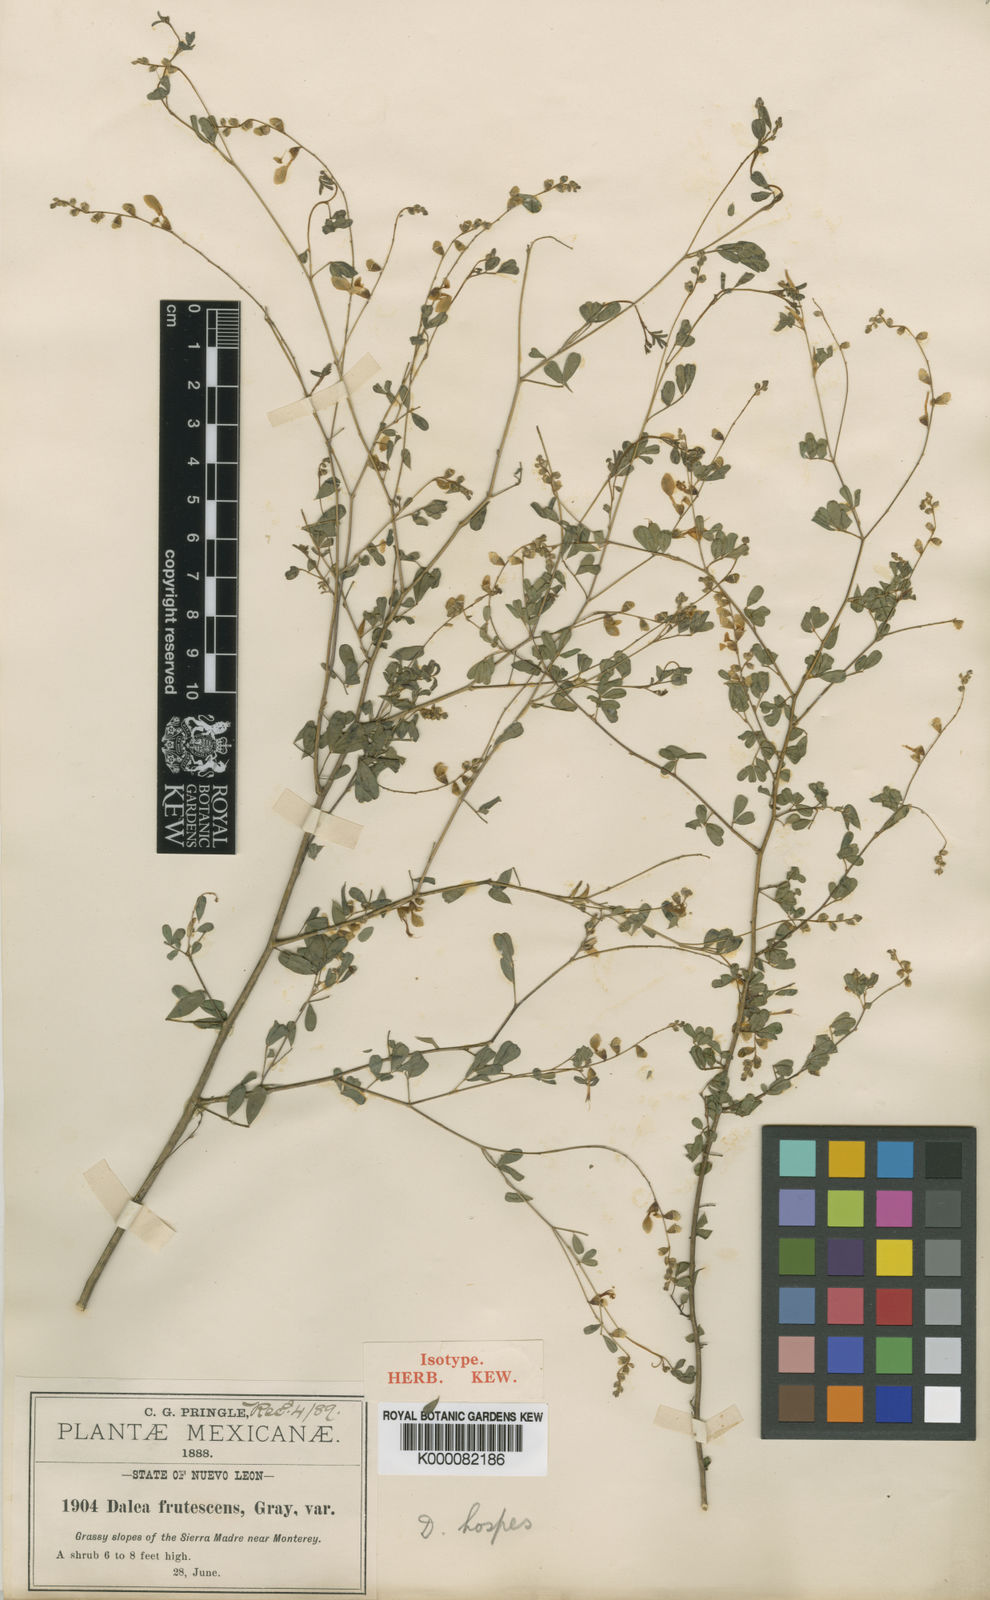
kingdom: Plantae
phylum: Tracheophyta
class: Magnoliopsida
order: Fabales
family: Fabaceae
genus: Dalea
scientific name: Dalea hospes
